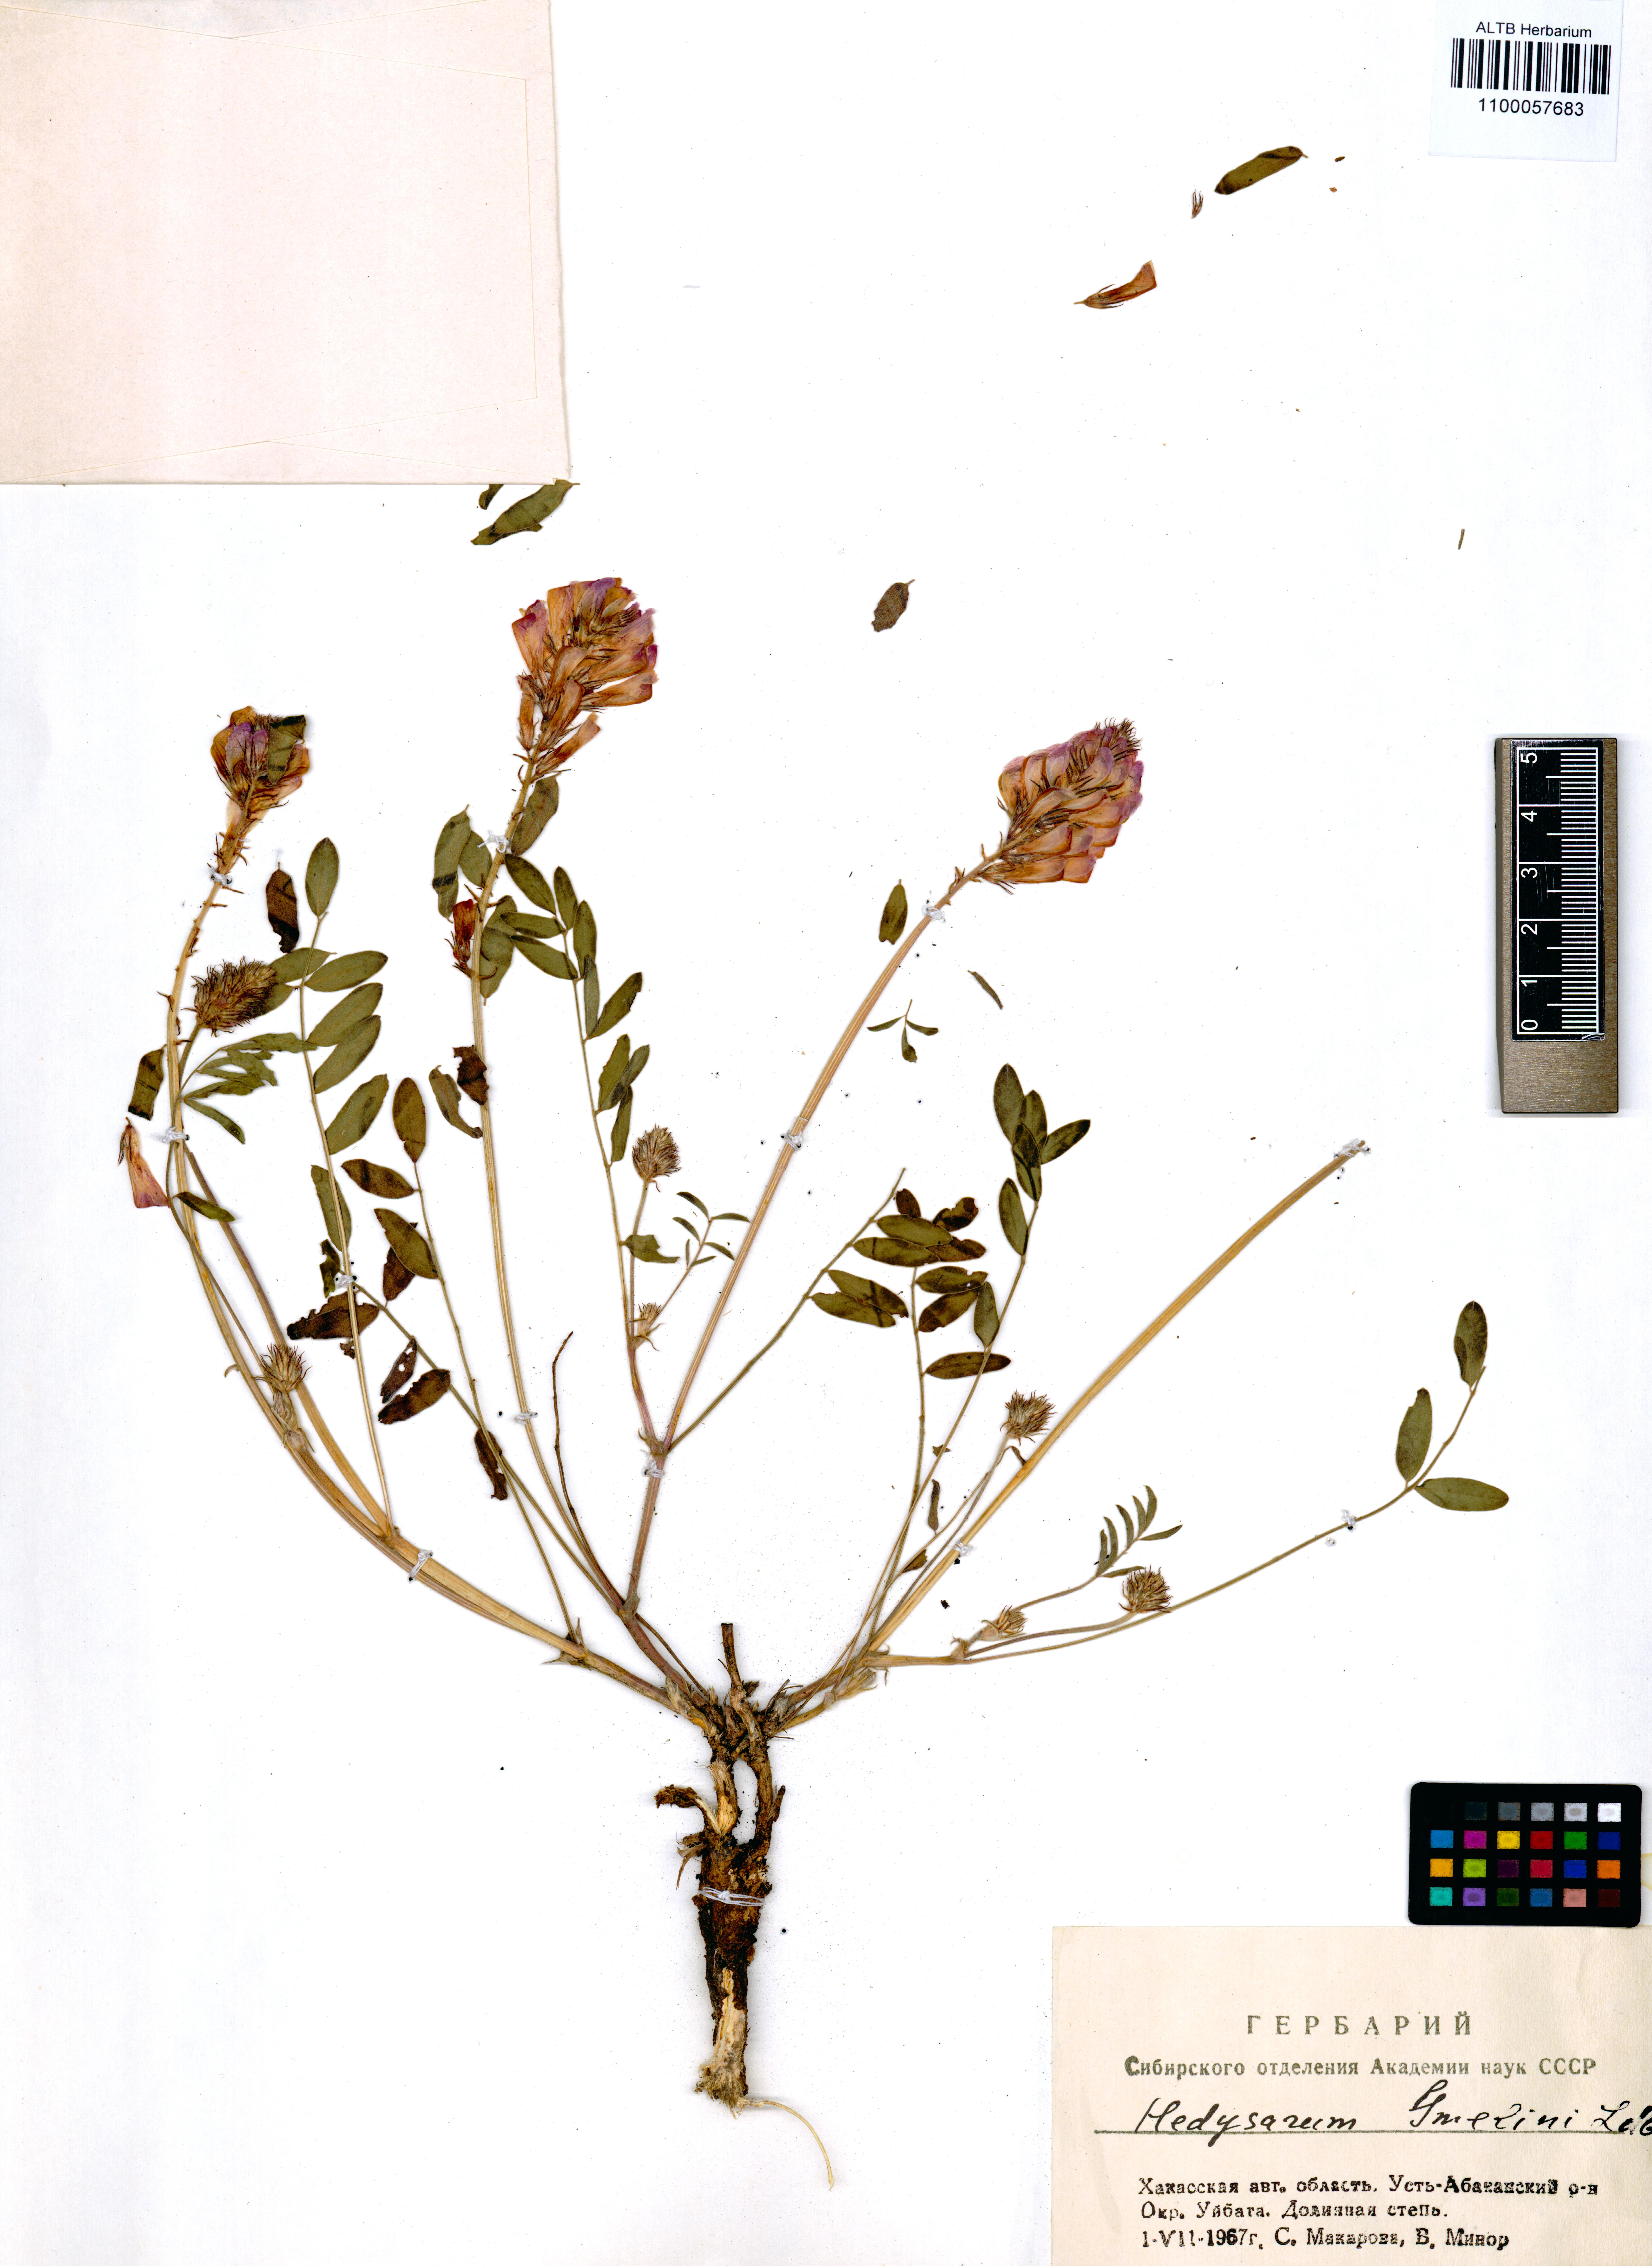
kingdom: Plantae
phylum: Tracheophyta
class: Magnoliopsida
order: Fabales
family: Fabaceae
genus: Hedysarum
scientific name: Hedysarum gmelinii
